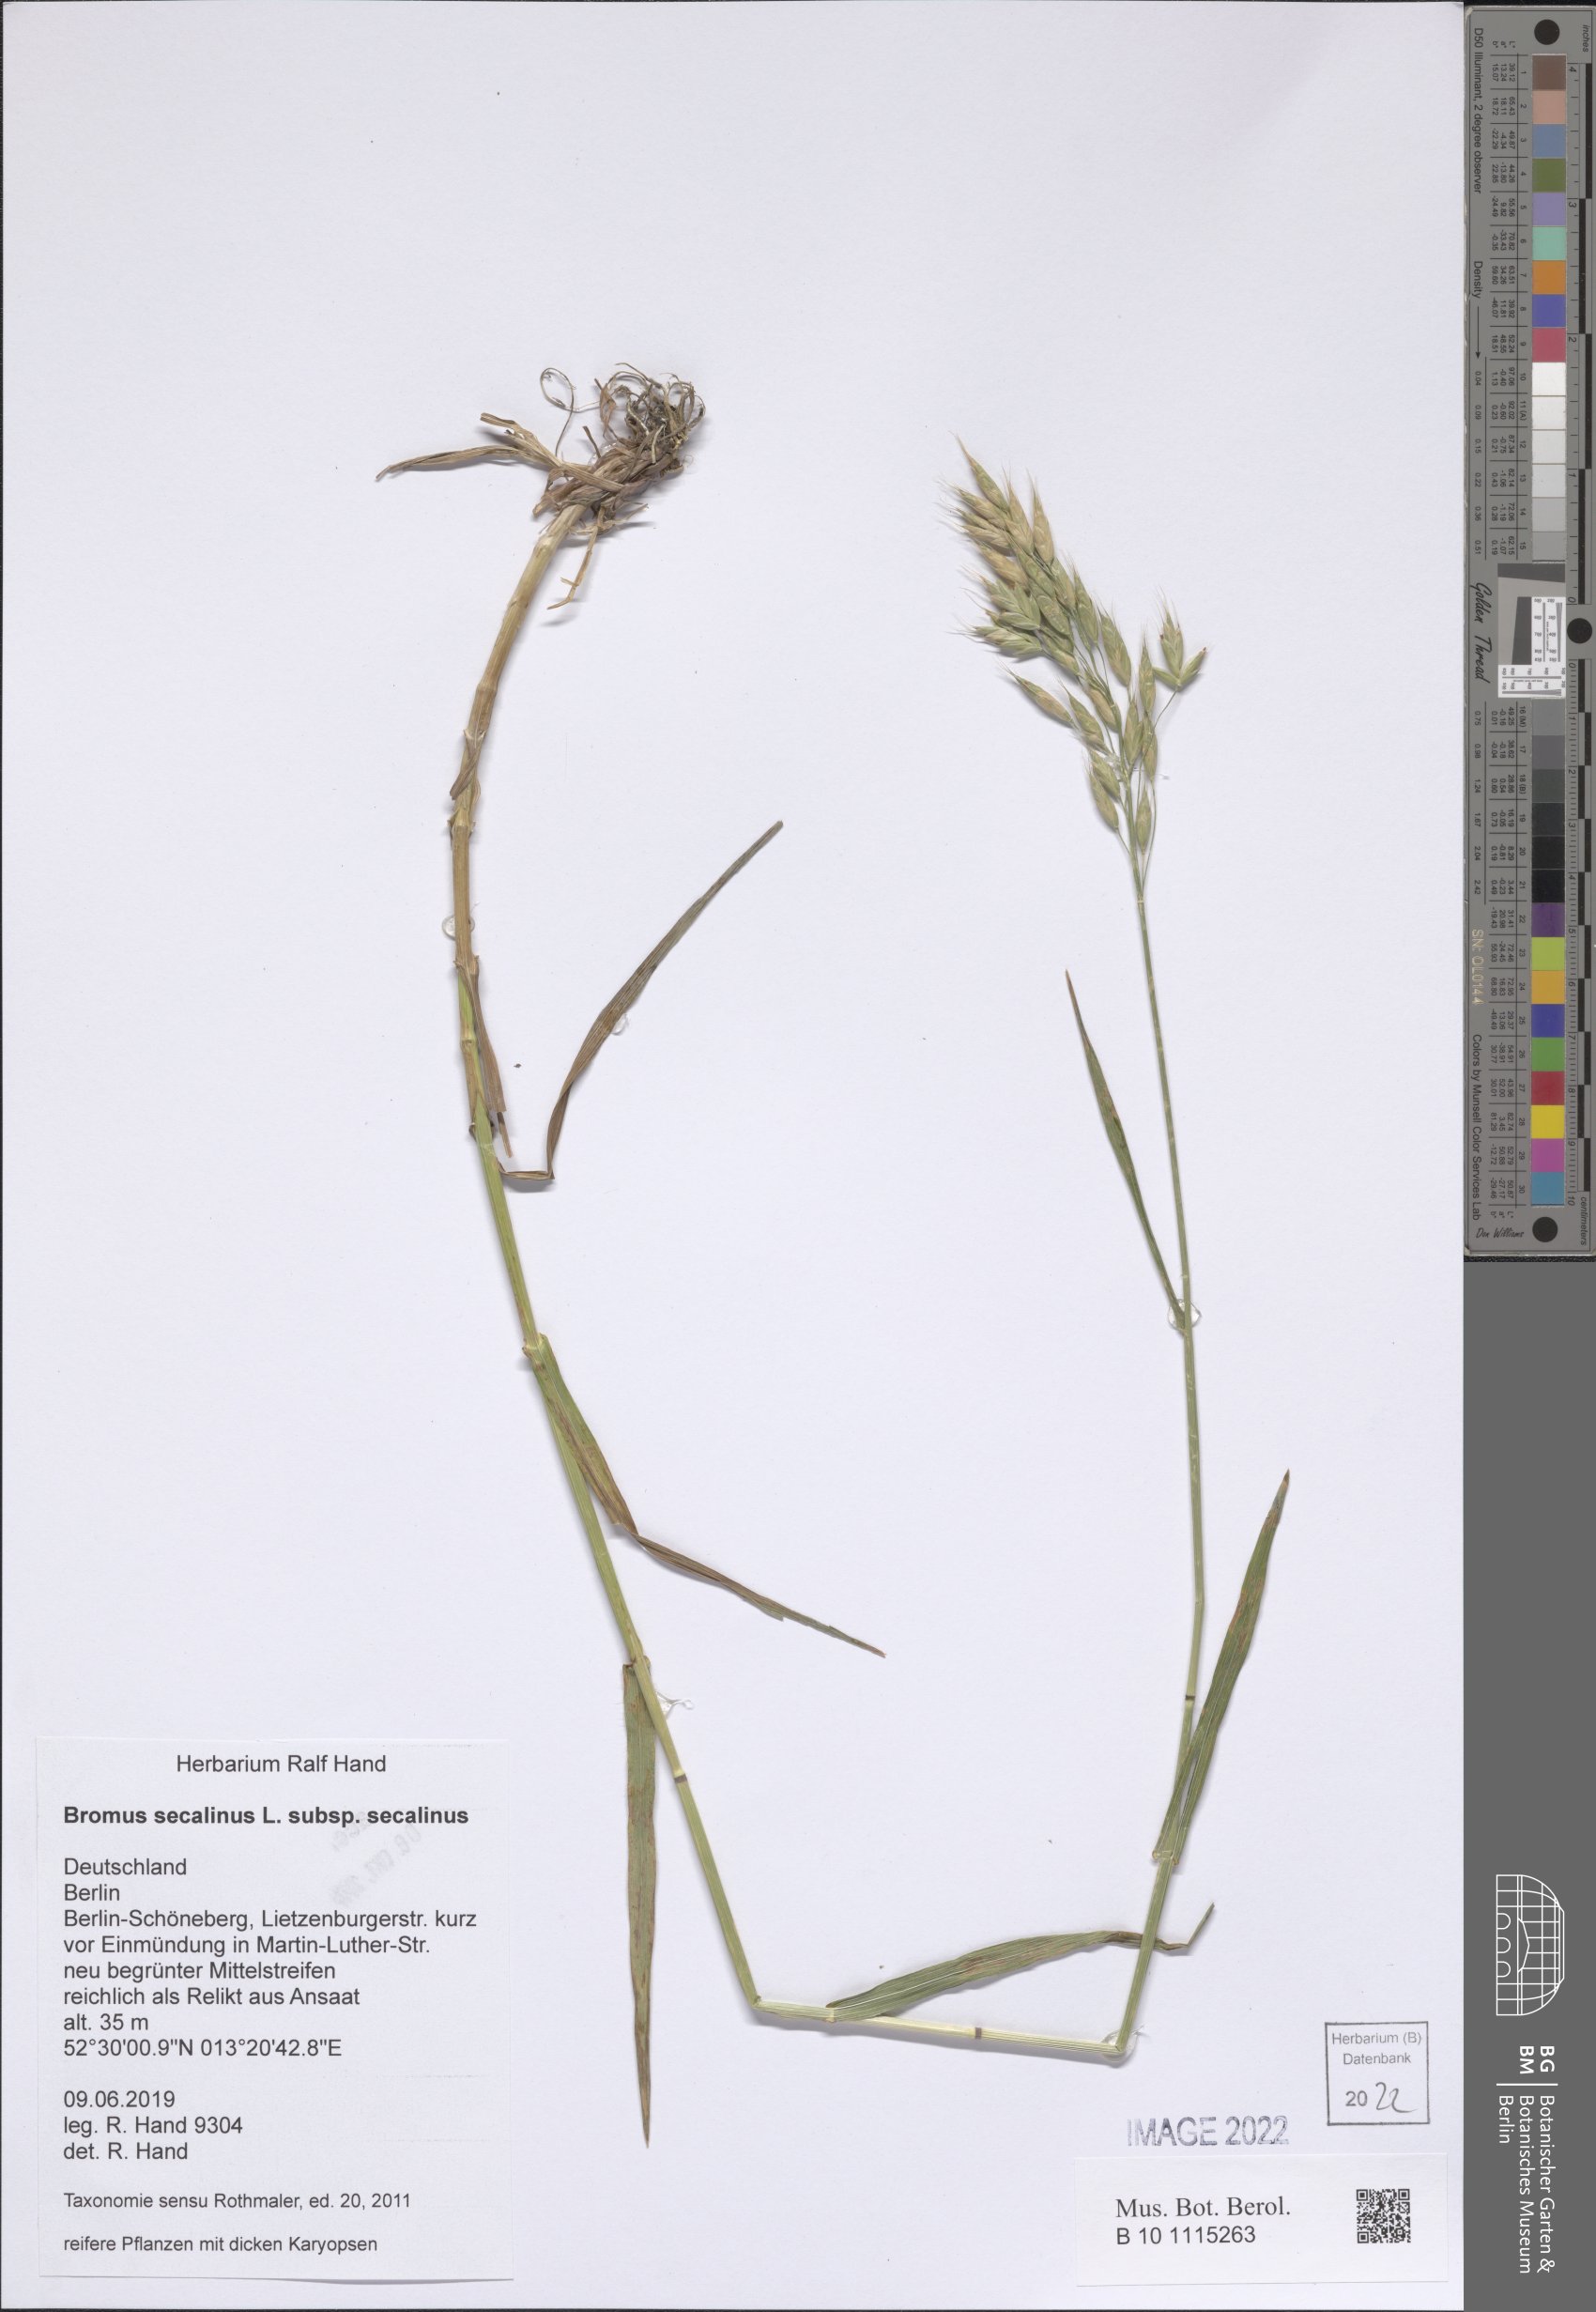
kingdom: Plantae
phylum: Tracheophyta
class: Liliopsida
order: Poales
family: Poaceae
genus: Bromus
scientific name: Bromus secalinus
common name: Rye brome
